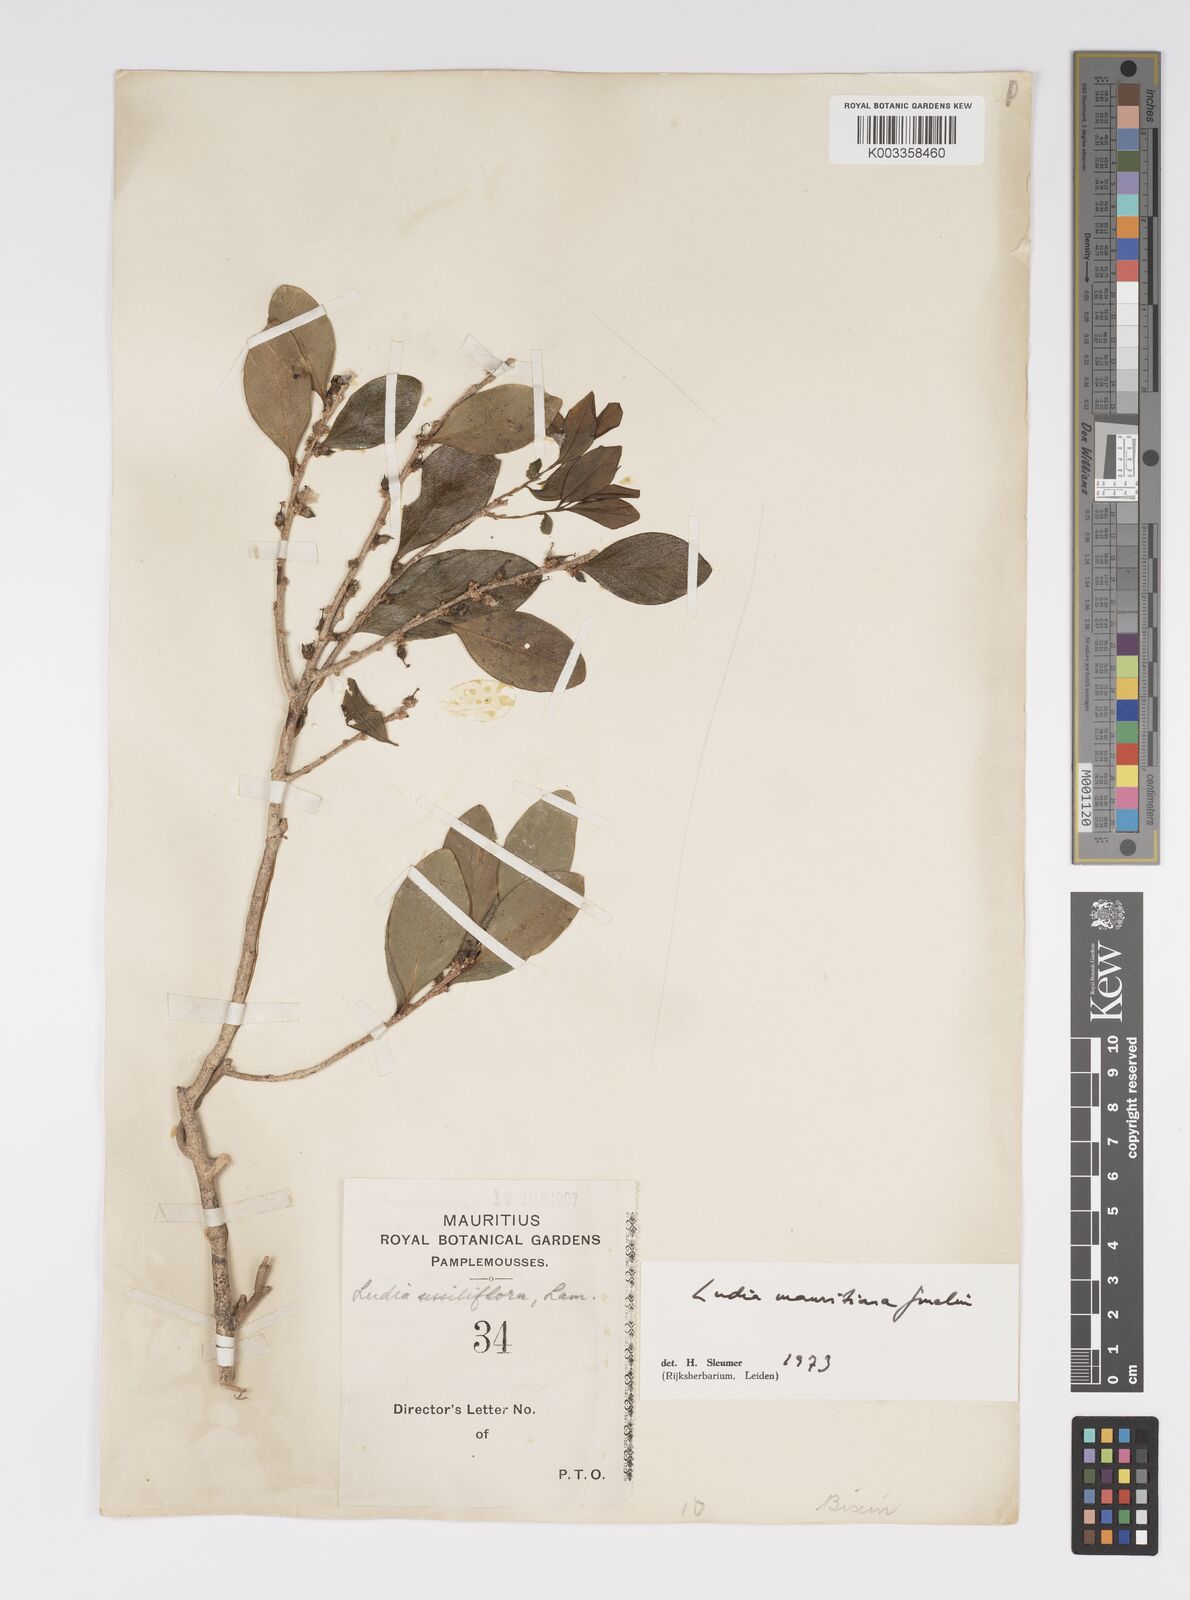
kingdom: Plantae
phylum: Tracheophyta
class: Magnoliopsida
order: Malpighiales
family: Salicaceae
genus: Ludia
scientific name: Ludia mauritiana
